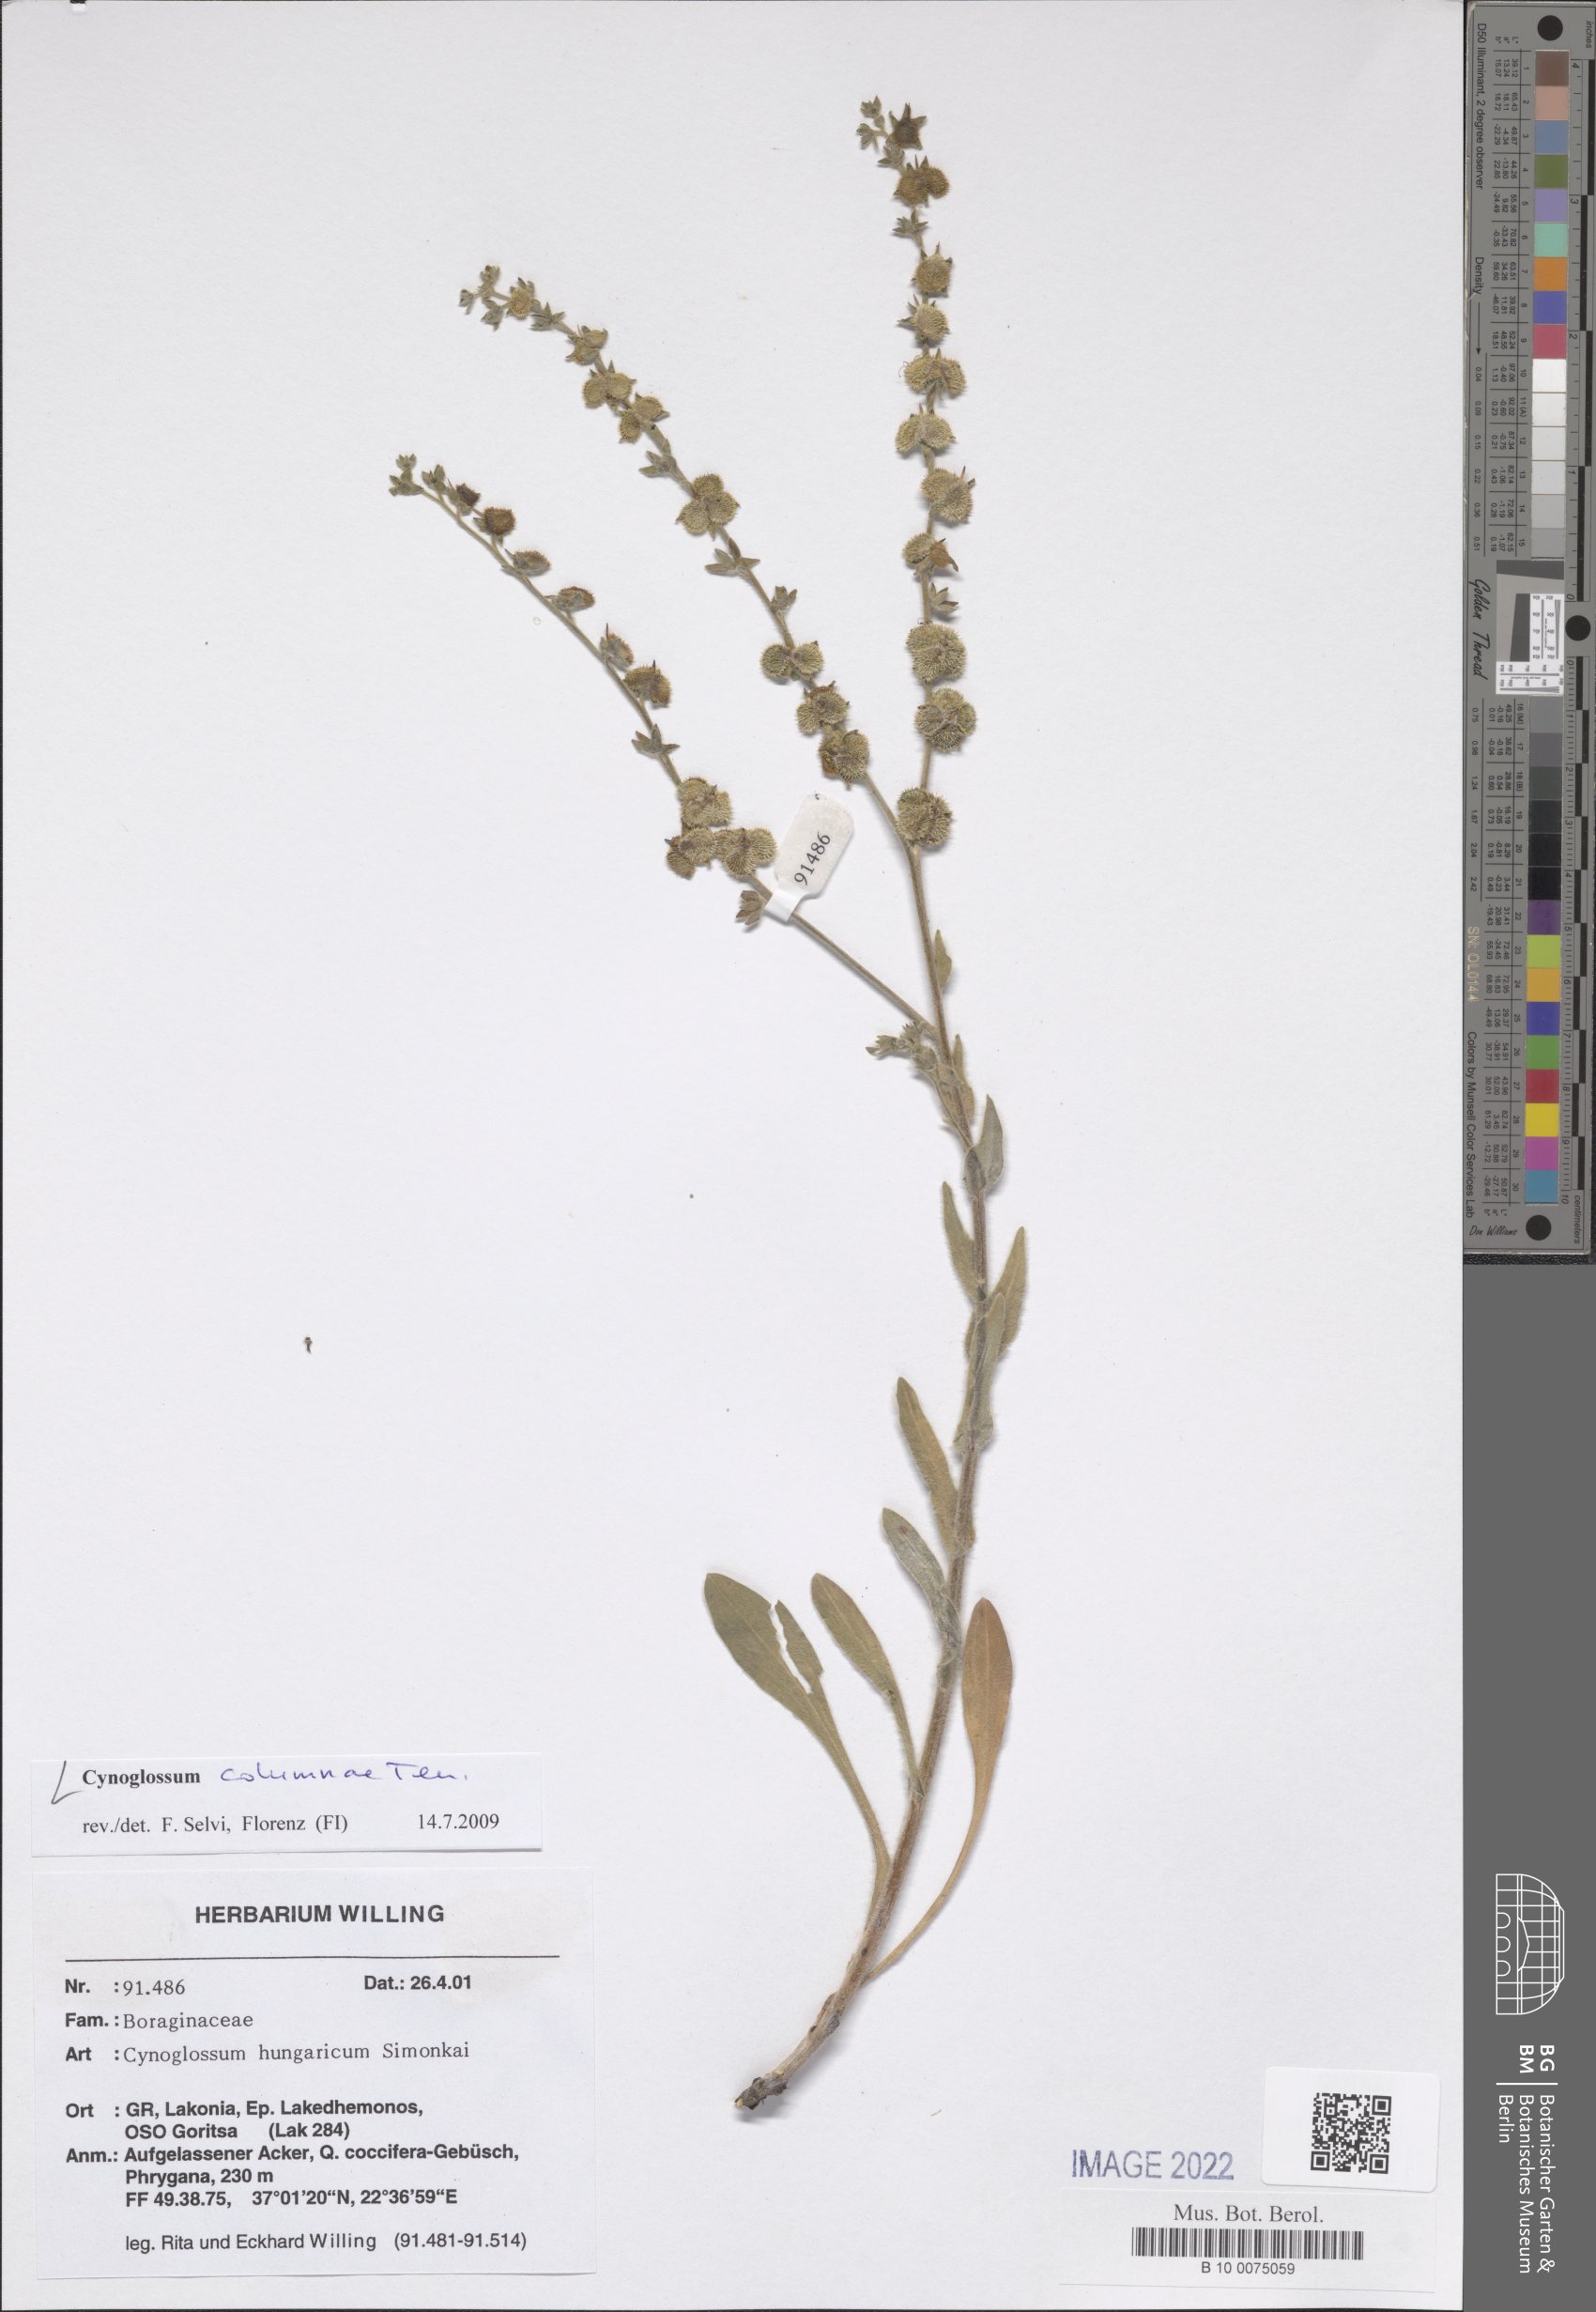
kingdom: Plantae
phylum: Tracheophyta
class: Magnoliopsida
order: Boraginales
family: Boraginaceae
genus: Rindera
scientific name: Rindera columnae
